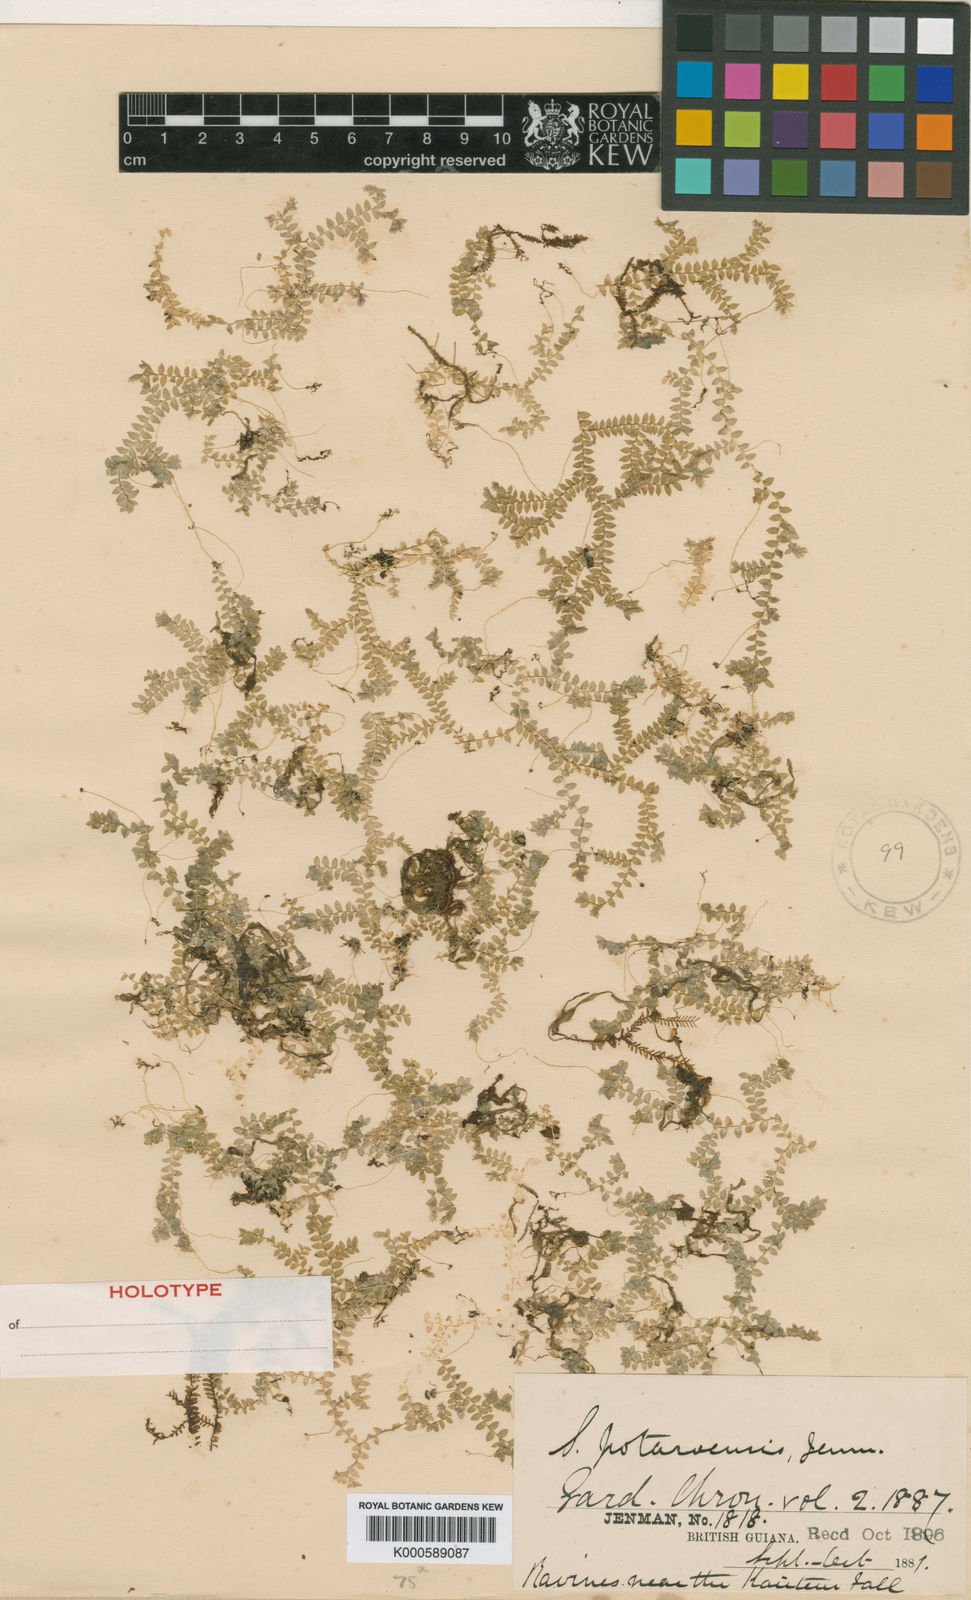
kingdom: Plantae
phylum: Tracheophyta
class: Lycopodiopsida
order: Selaginellales
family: Selaginellaceae
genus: Selaginella
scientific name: Selaginella potaroensis
